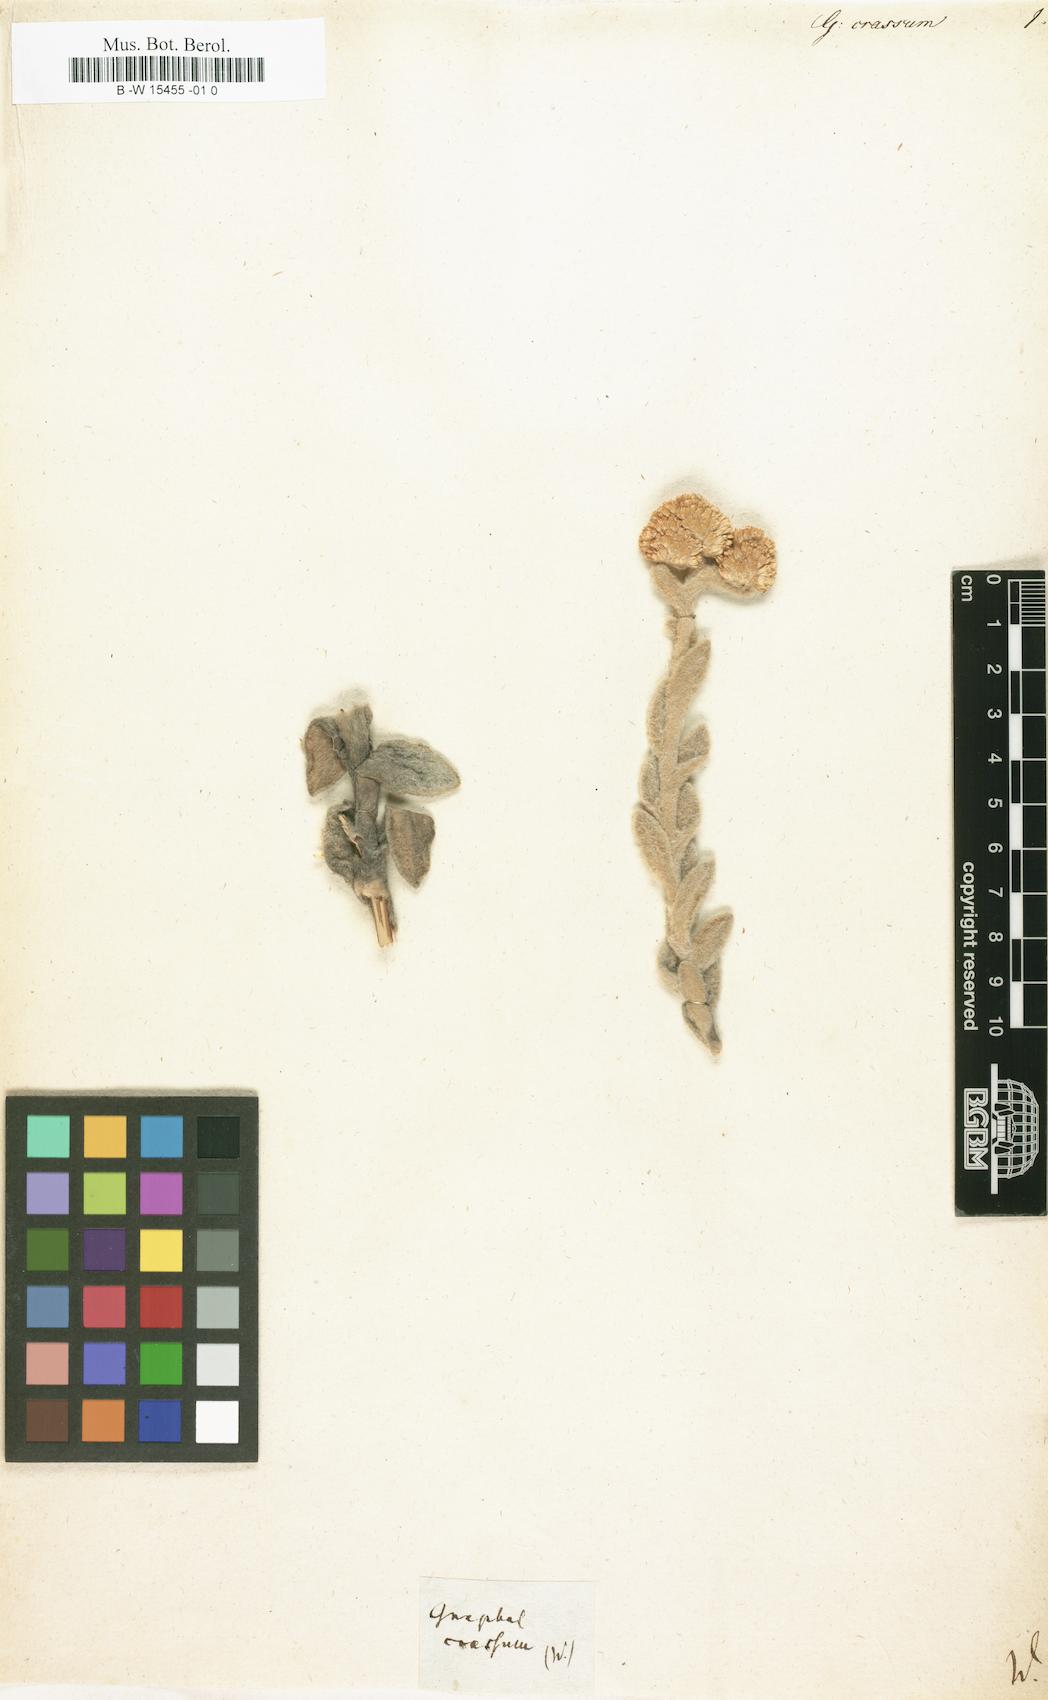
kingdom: Plantae
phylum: Tracheophyta
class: Magnoliopsida
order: Asterales
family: Asteraceae
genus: Helichrysum
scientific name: Helichrysum
